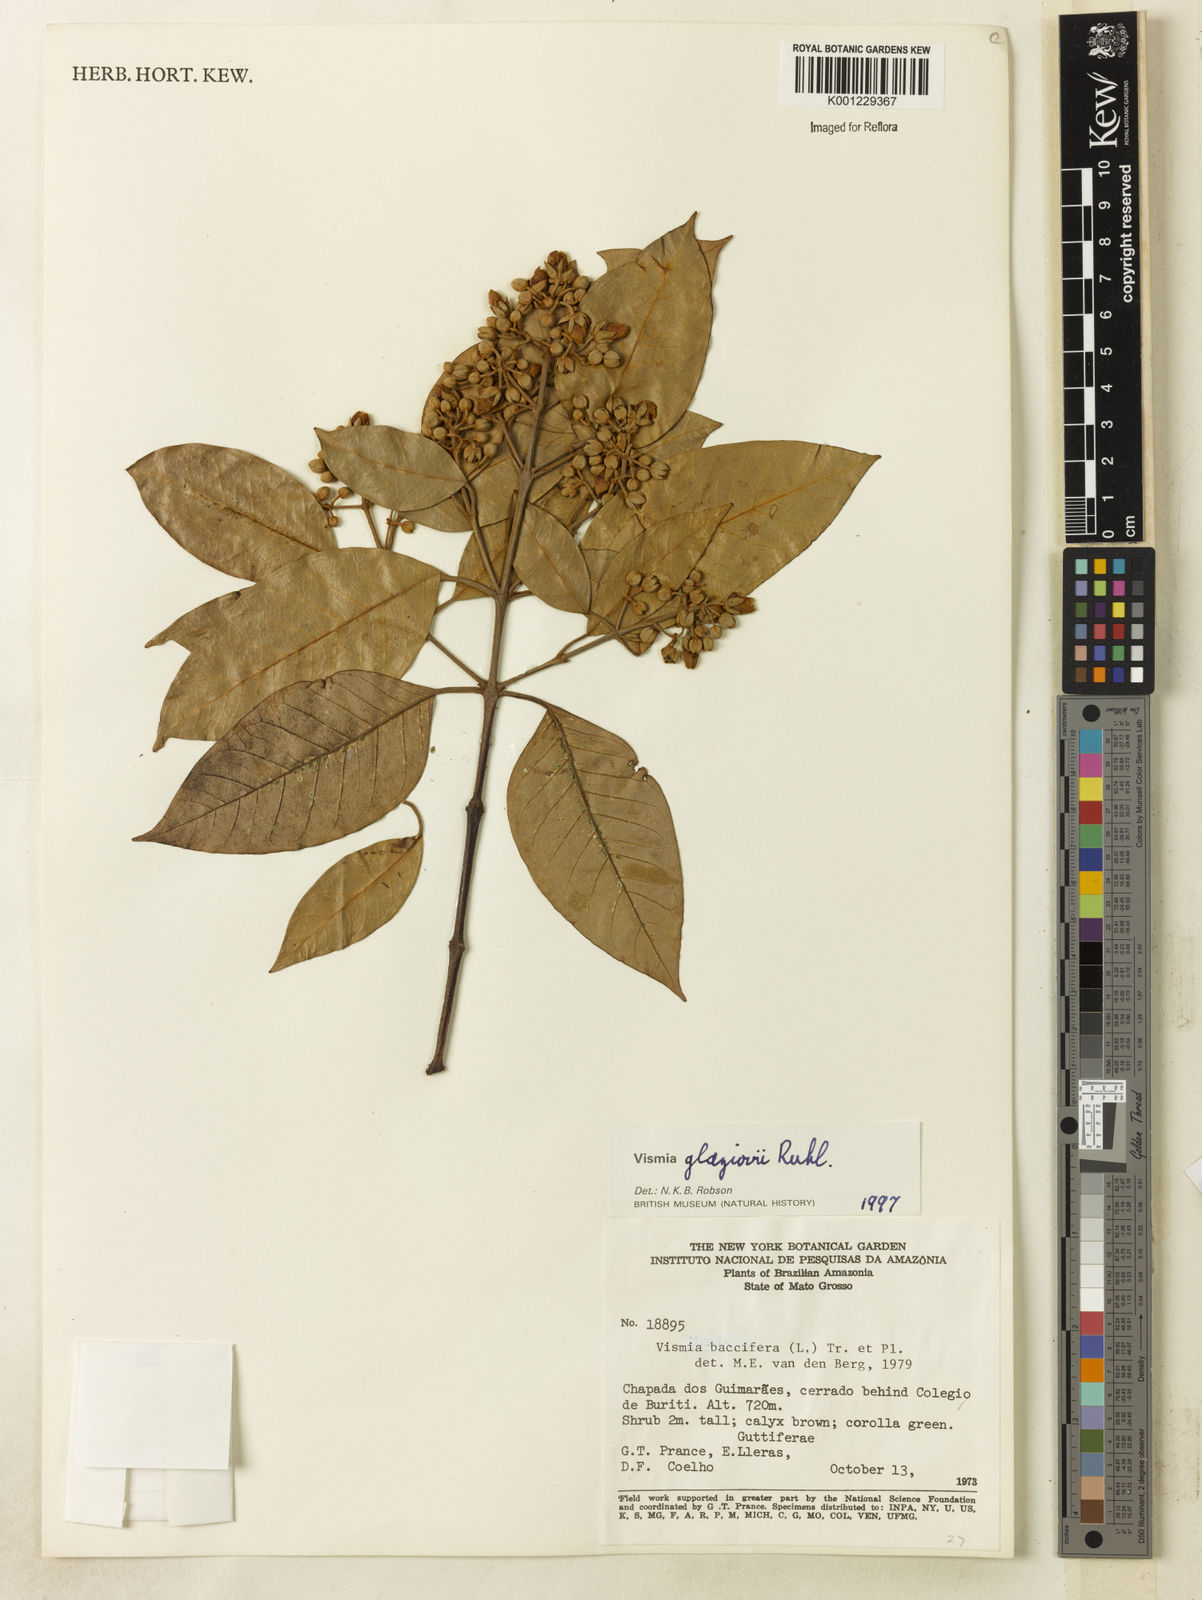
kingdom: Plantae
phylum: Tracheophyta
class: Magnoliopsida
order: Malpighiales
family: Hypericaceae
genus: Vismia
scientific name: Vismia gracilis
